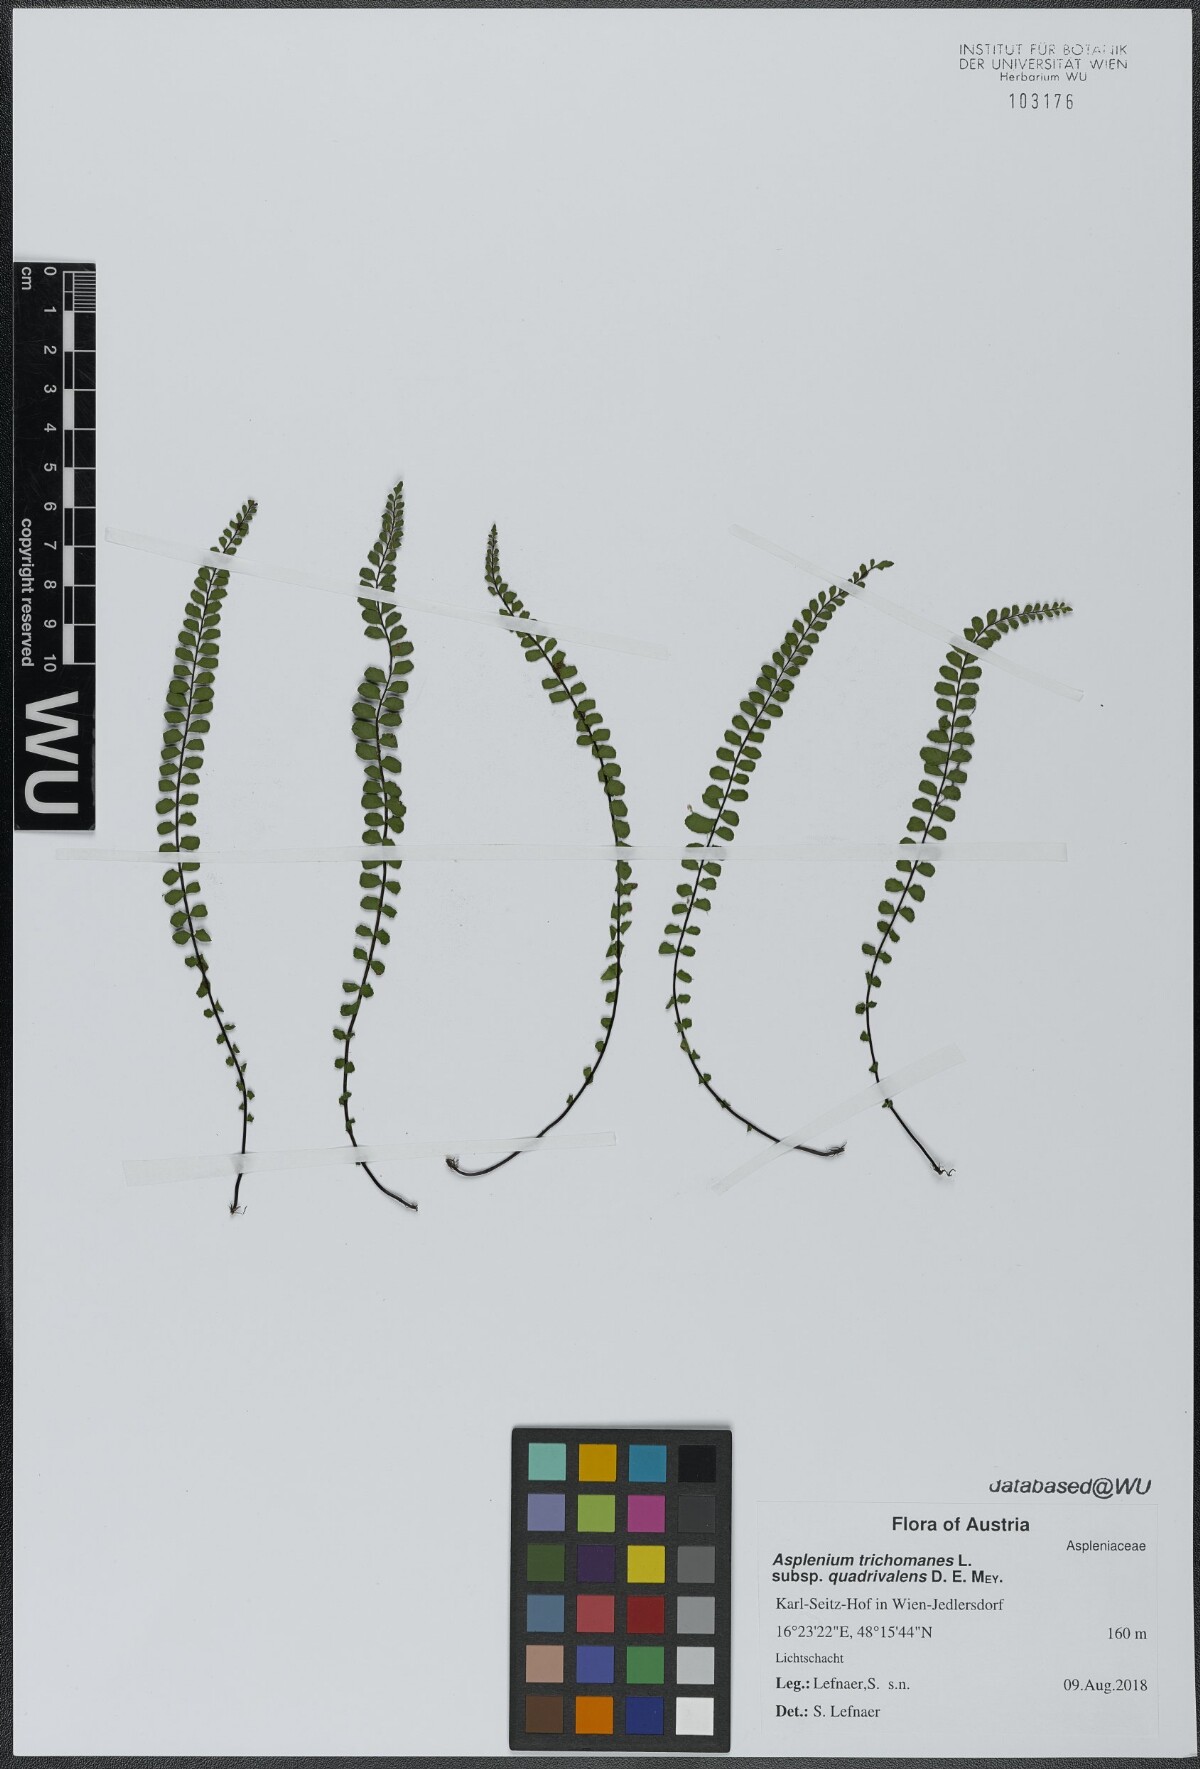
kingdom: Plantae
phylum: Tracheophyta
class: Polypodiopsida
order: Polypodiales
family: Aspleniaceae
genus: Asplenium
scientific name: Asplenium quadrivalens
